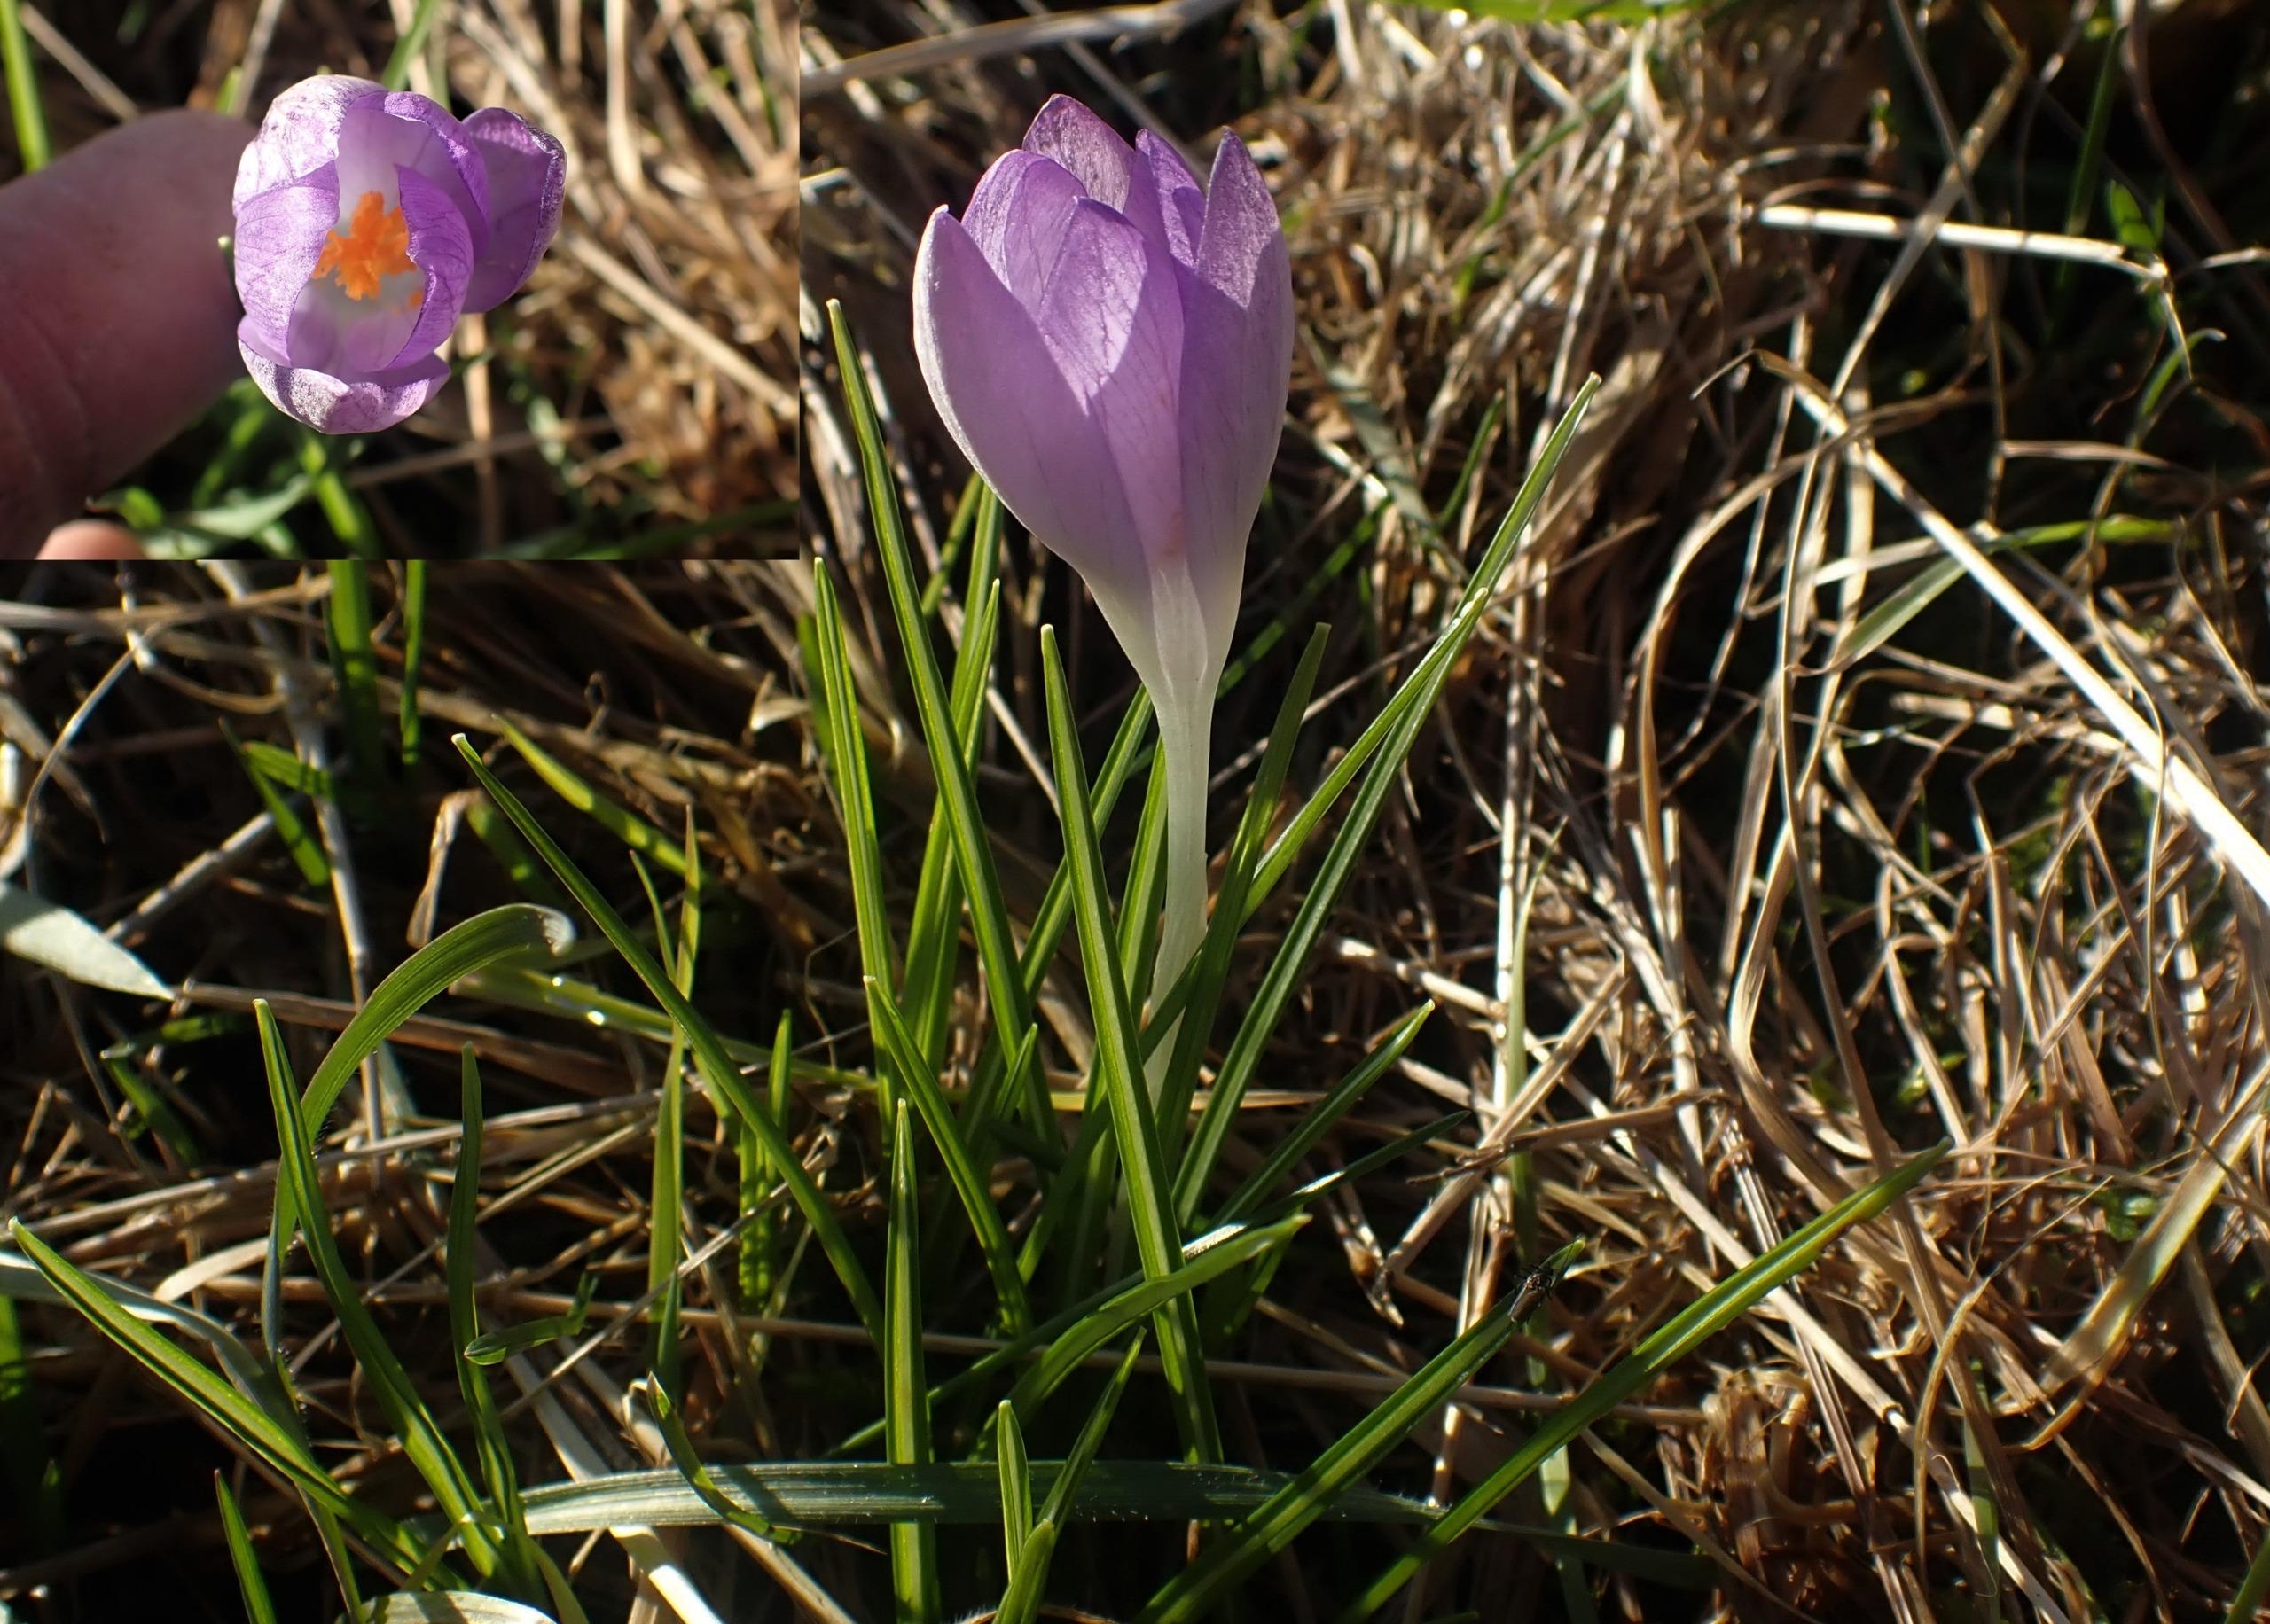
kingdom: Plantae
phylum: Tracheophyta
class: Liliopsida
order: Asparagales
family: Iridaceae
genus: Crocus
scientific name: Crocus tommasinianus
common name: Sne-krokus
